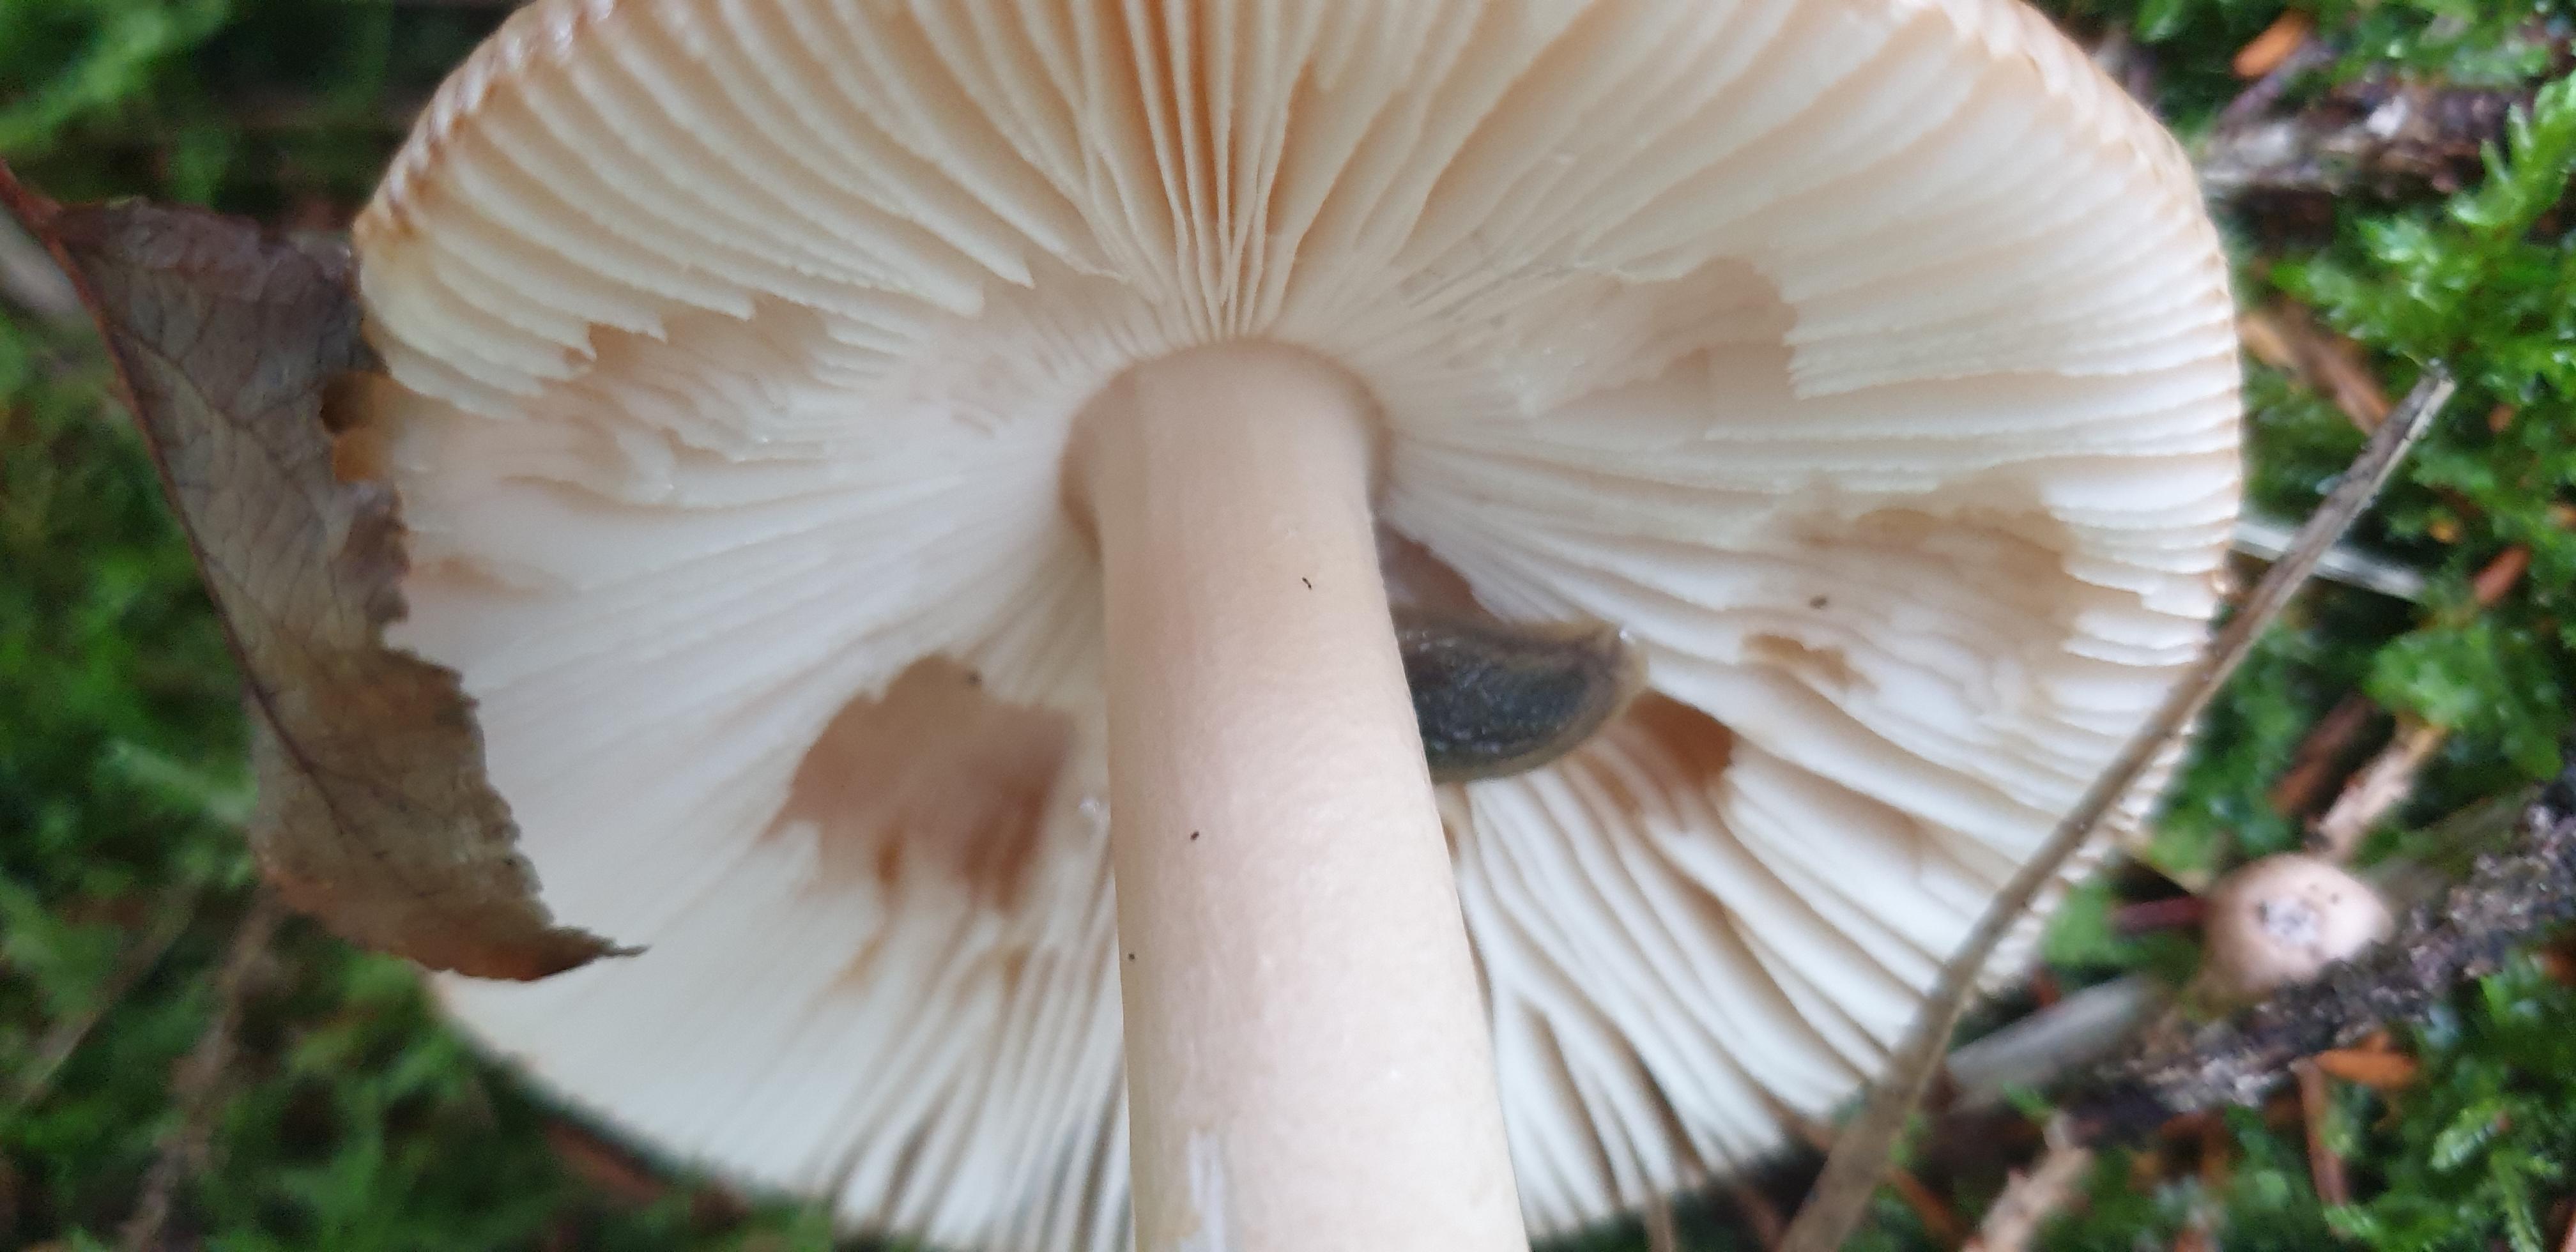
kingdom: Fungi
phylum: Basidiomycota
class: Agaricomycetes
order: Agaricales
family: Amanitaceae
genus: Amanita
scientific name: Amanita fulva
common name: brun kam-fluesvamp
